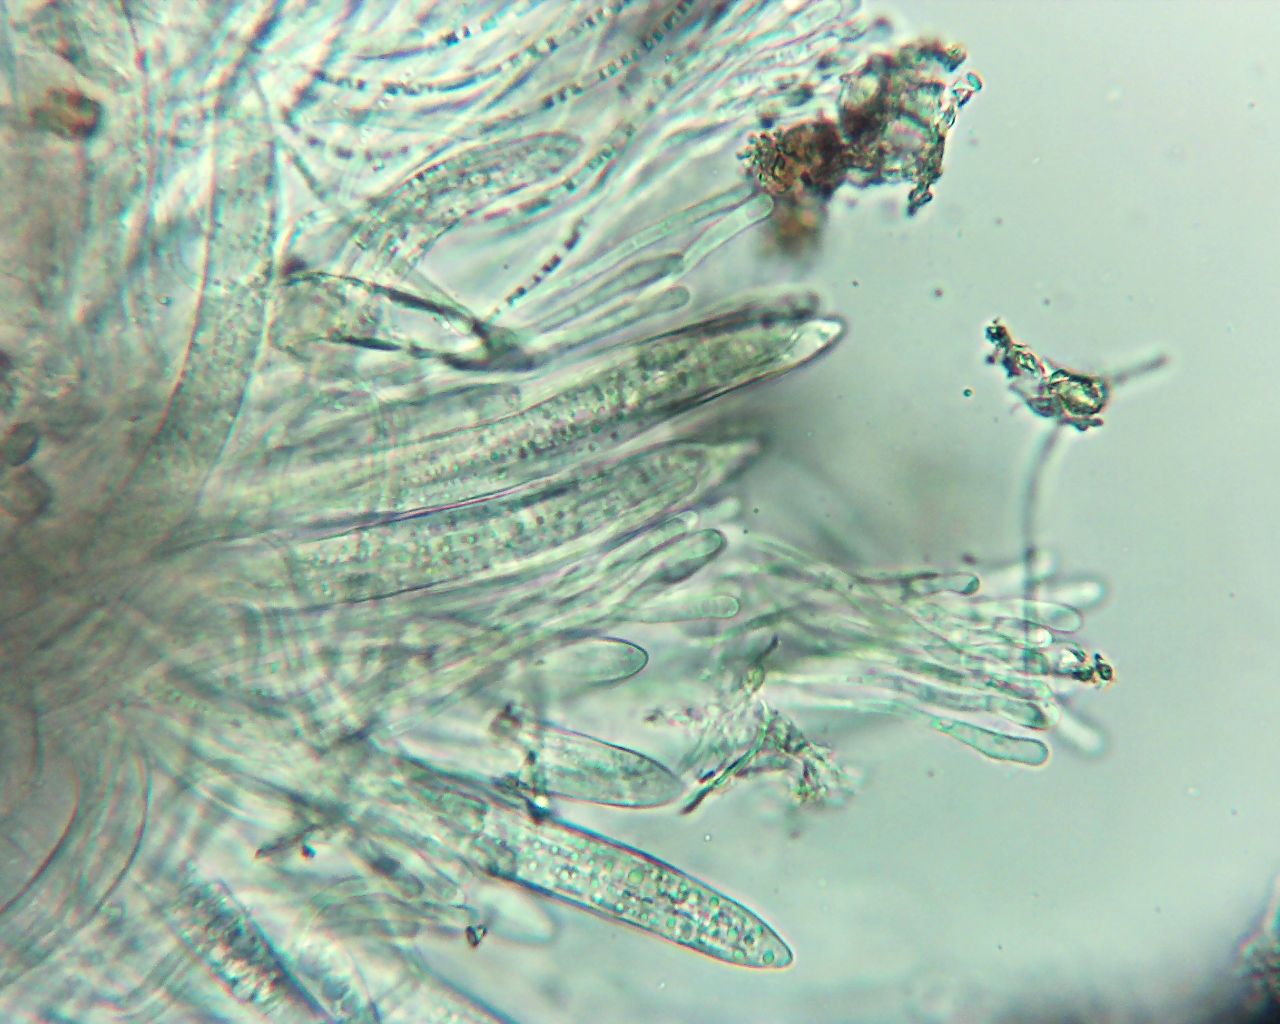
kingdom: Fungi
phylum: Ascomycota
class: Leotiomycetes
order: Rhytismatales
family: Rhytismataceae
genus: Lophodermium
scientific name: Lophodermium pinastri
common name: fyrre-fureplet
